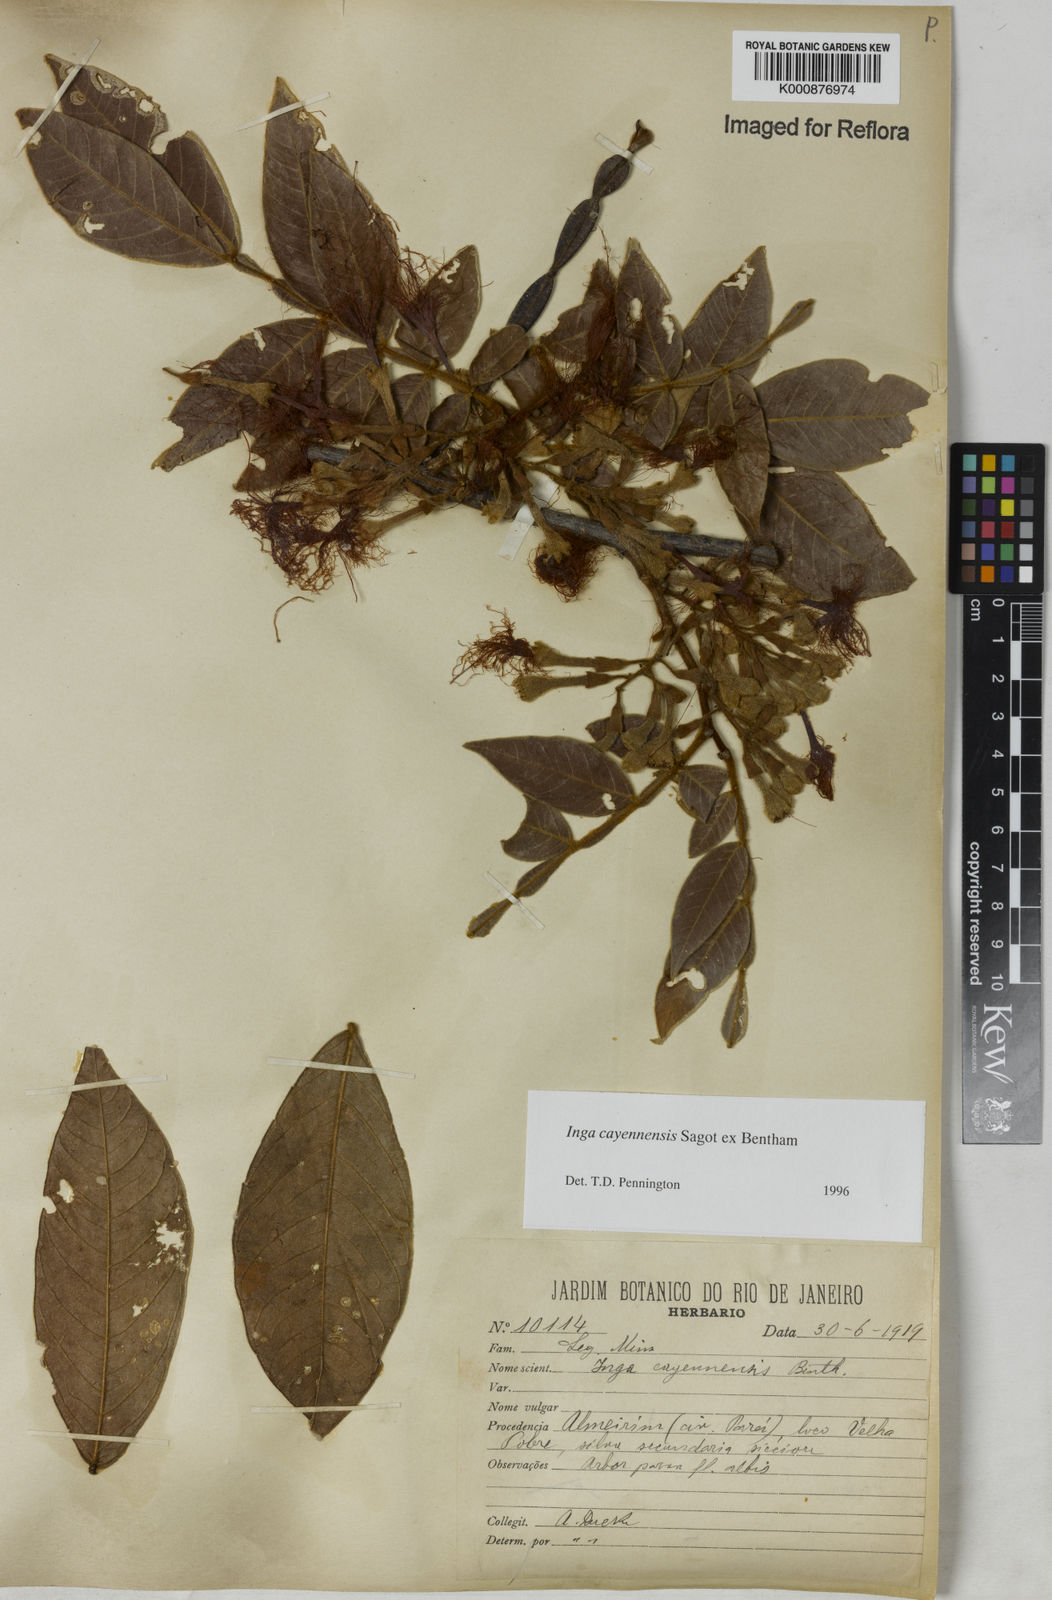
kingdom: Plantae
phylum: Tracheophyta
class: Magnoliopsida
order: Fabales
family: Fabaceae
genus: Inga
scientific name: Inga cayennensis
